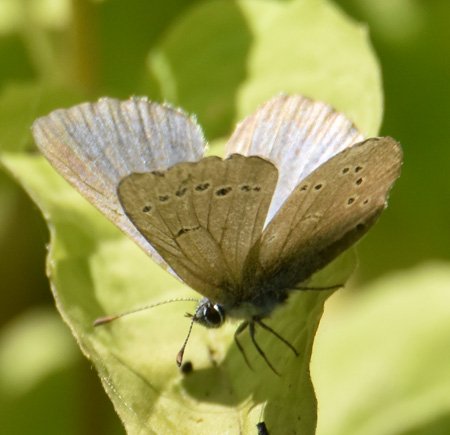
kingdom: Animalia
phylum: Arthropoda
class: Insecta
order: Lepidoptera
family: Lycaenidae
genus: Glaucopsyche
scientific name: Glaucopsyche lygdamus
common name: Silvery Blue
